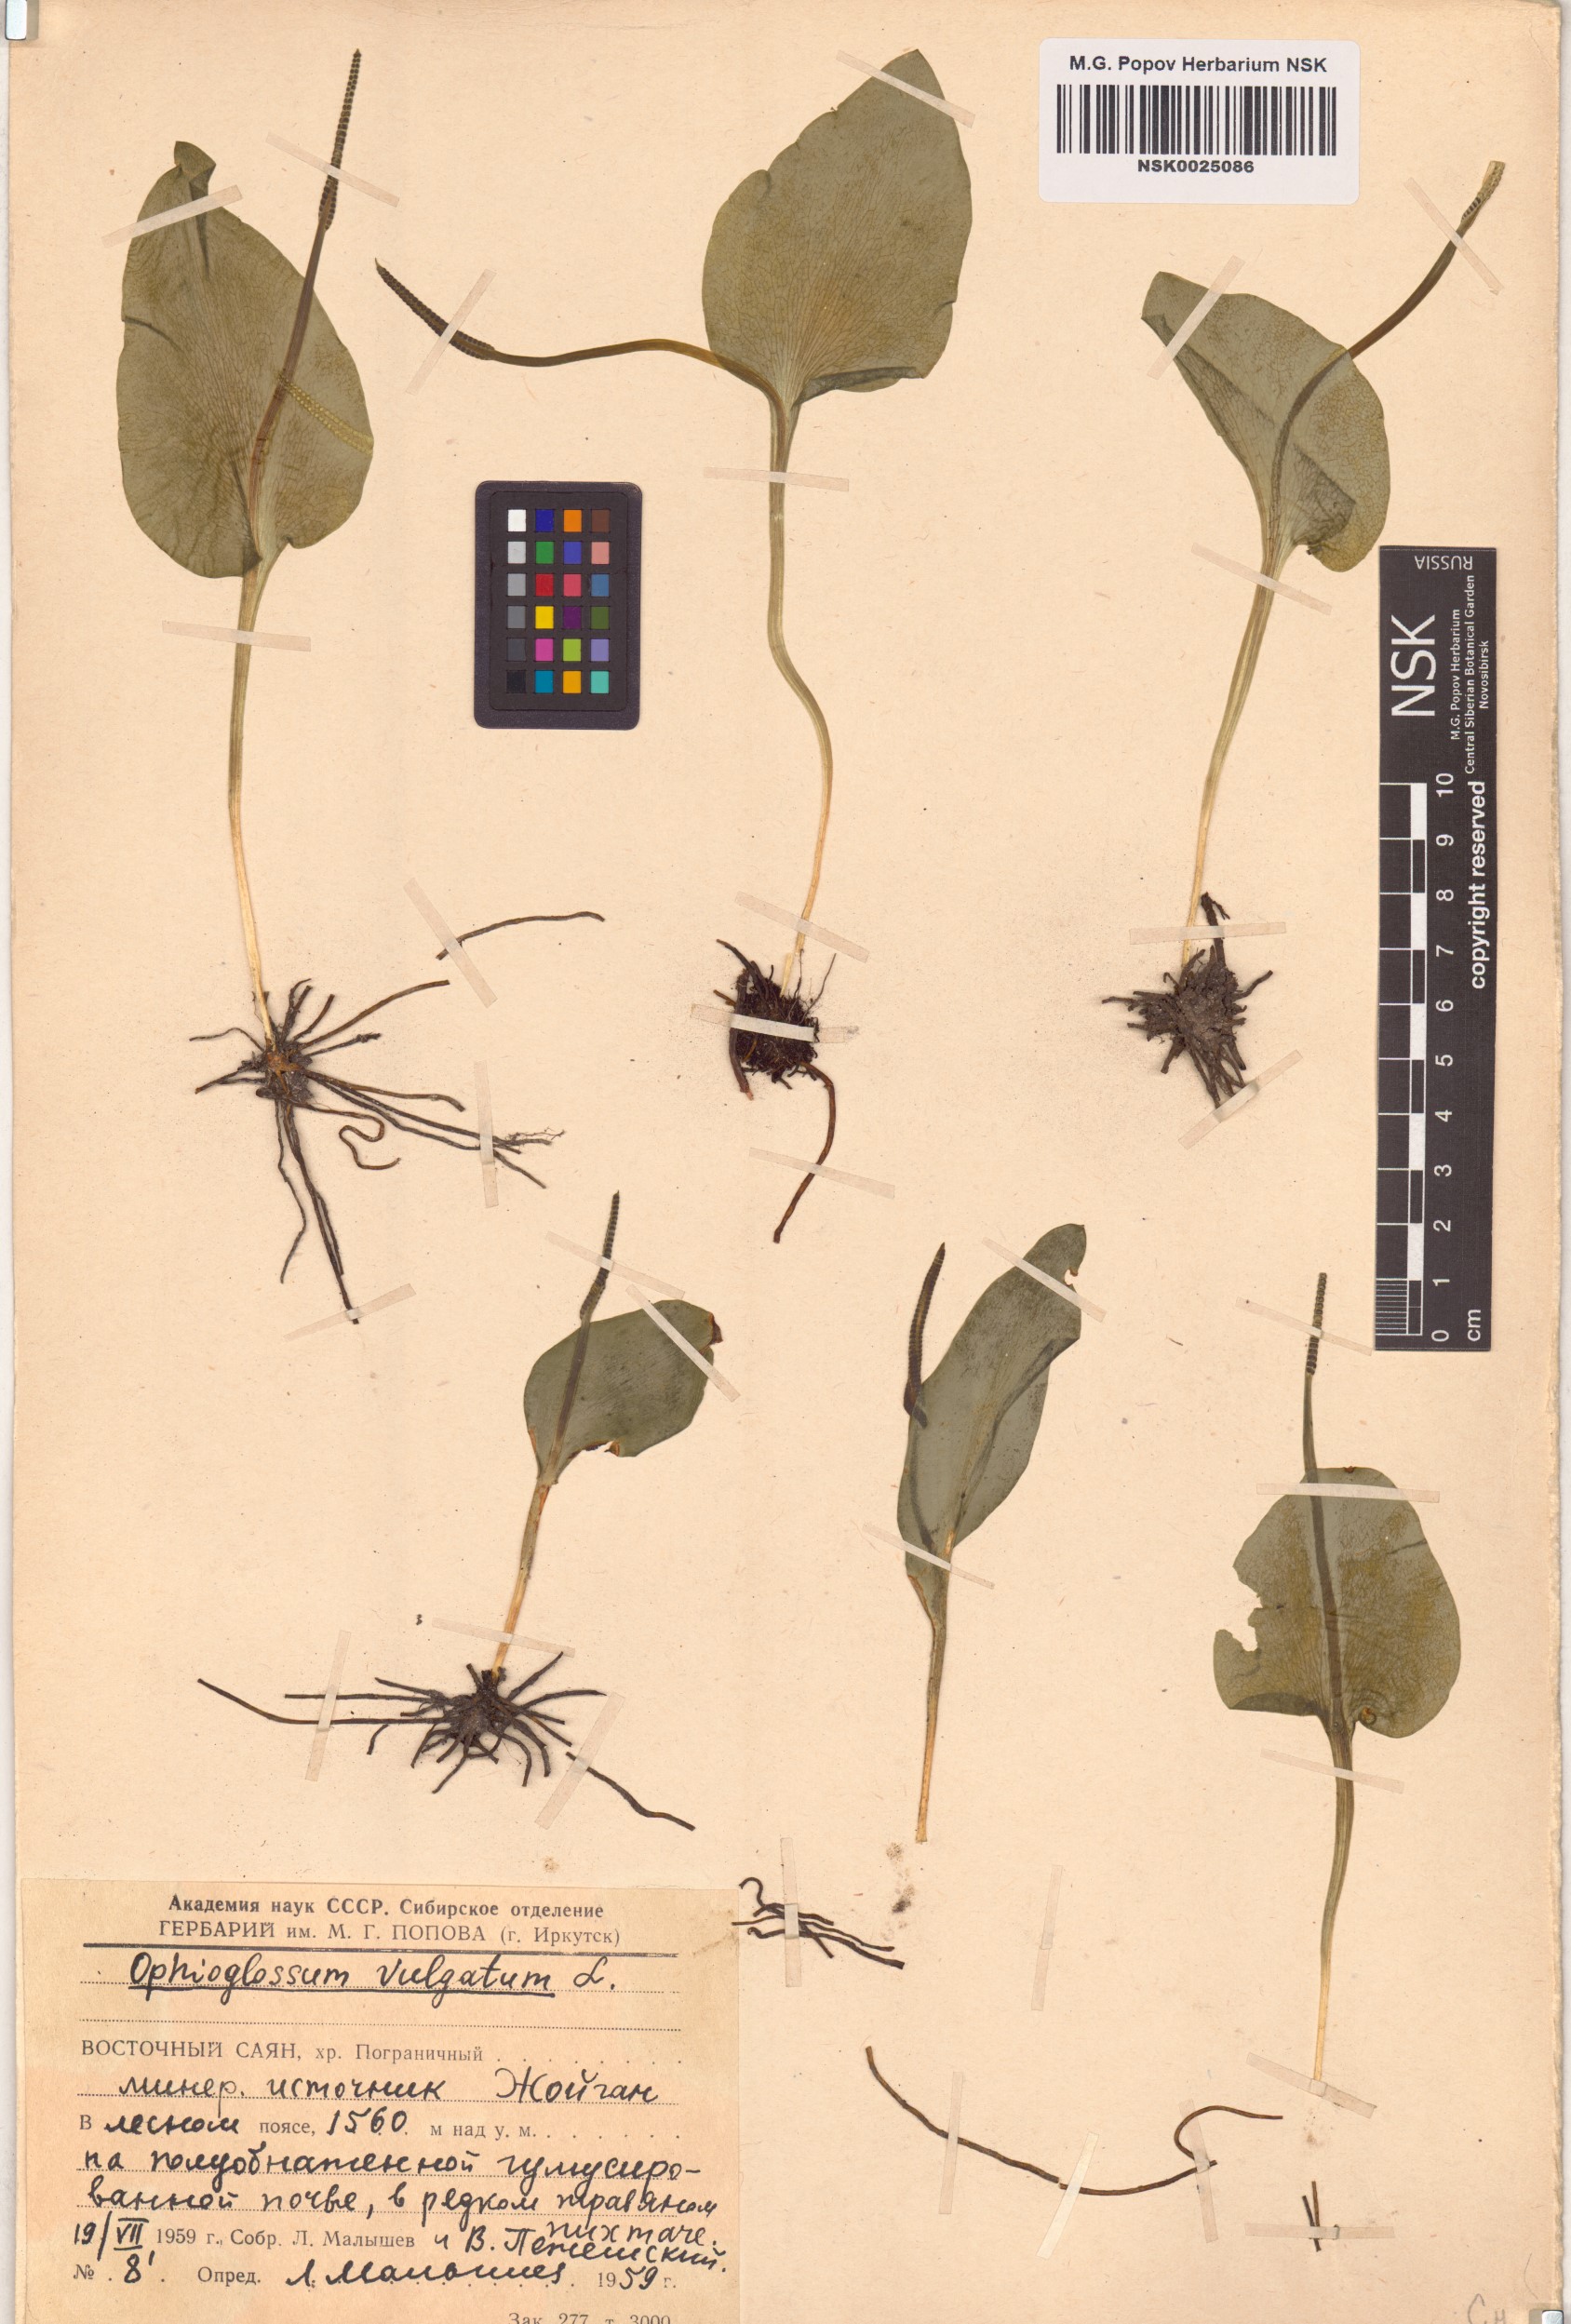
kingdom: Plantae
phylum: Tracheophyta
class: Polypodiopsida
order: Ophioglossales
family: Ophioglossaceae
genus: Ophioglossum
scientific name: Ophioglossum vulgatum
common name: Adder's-tongue
